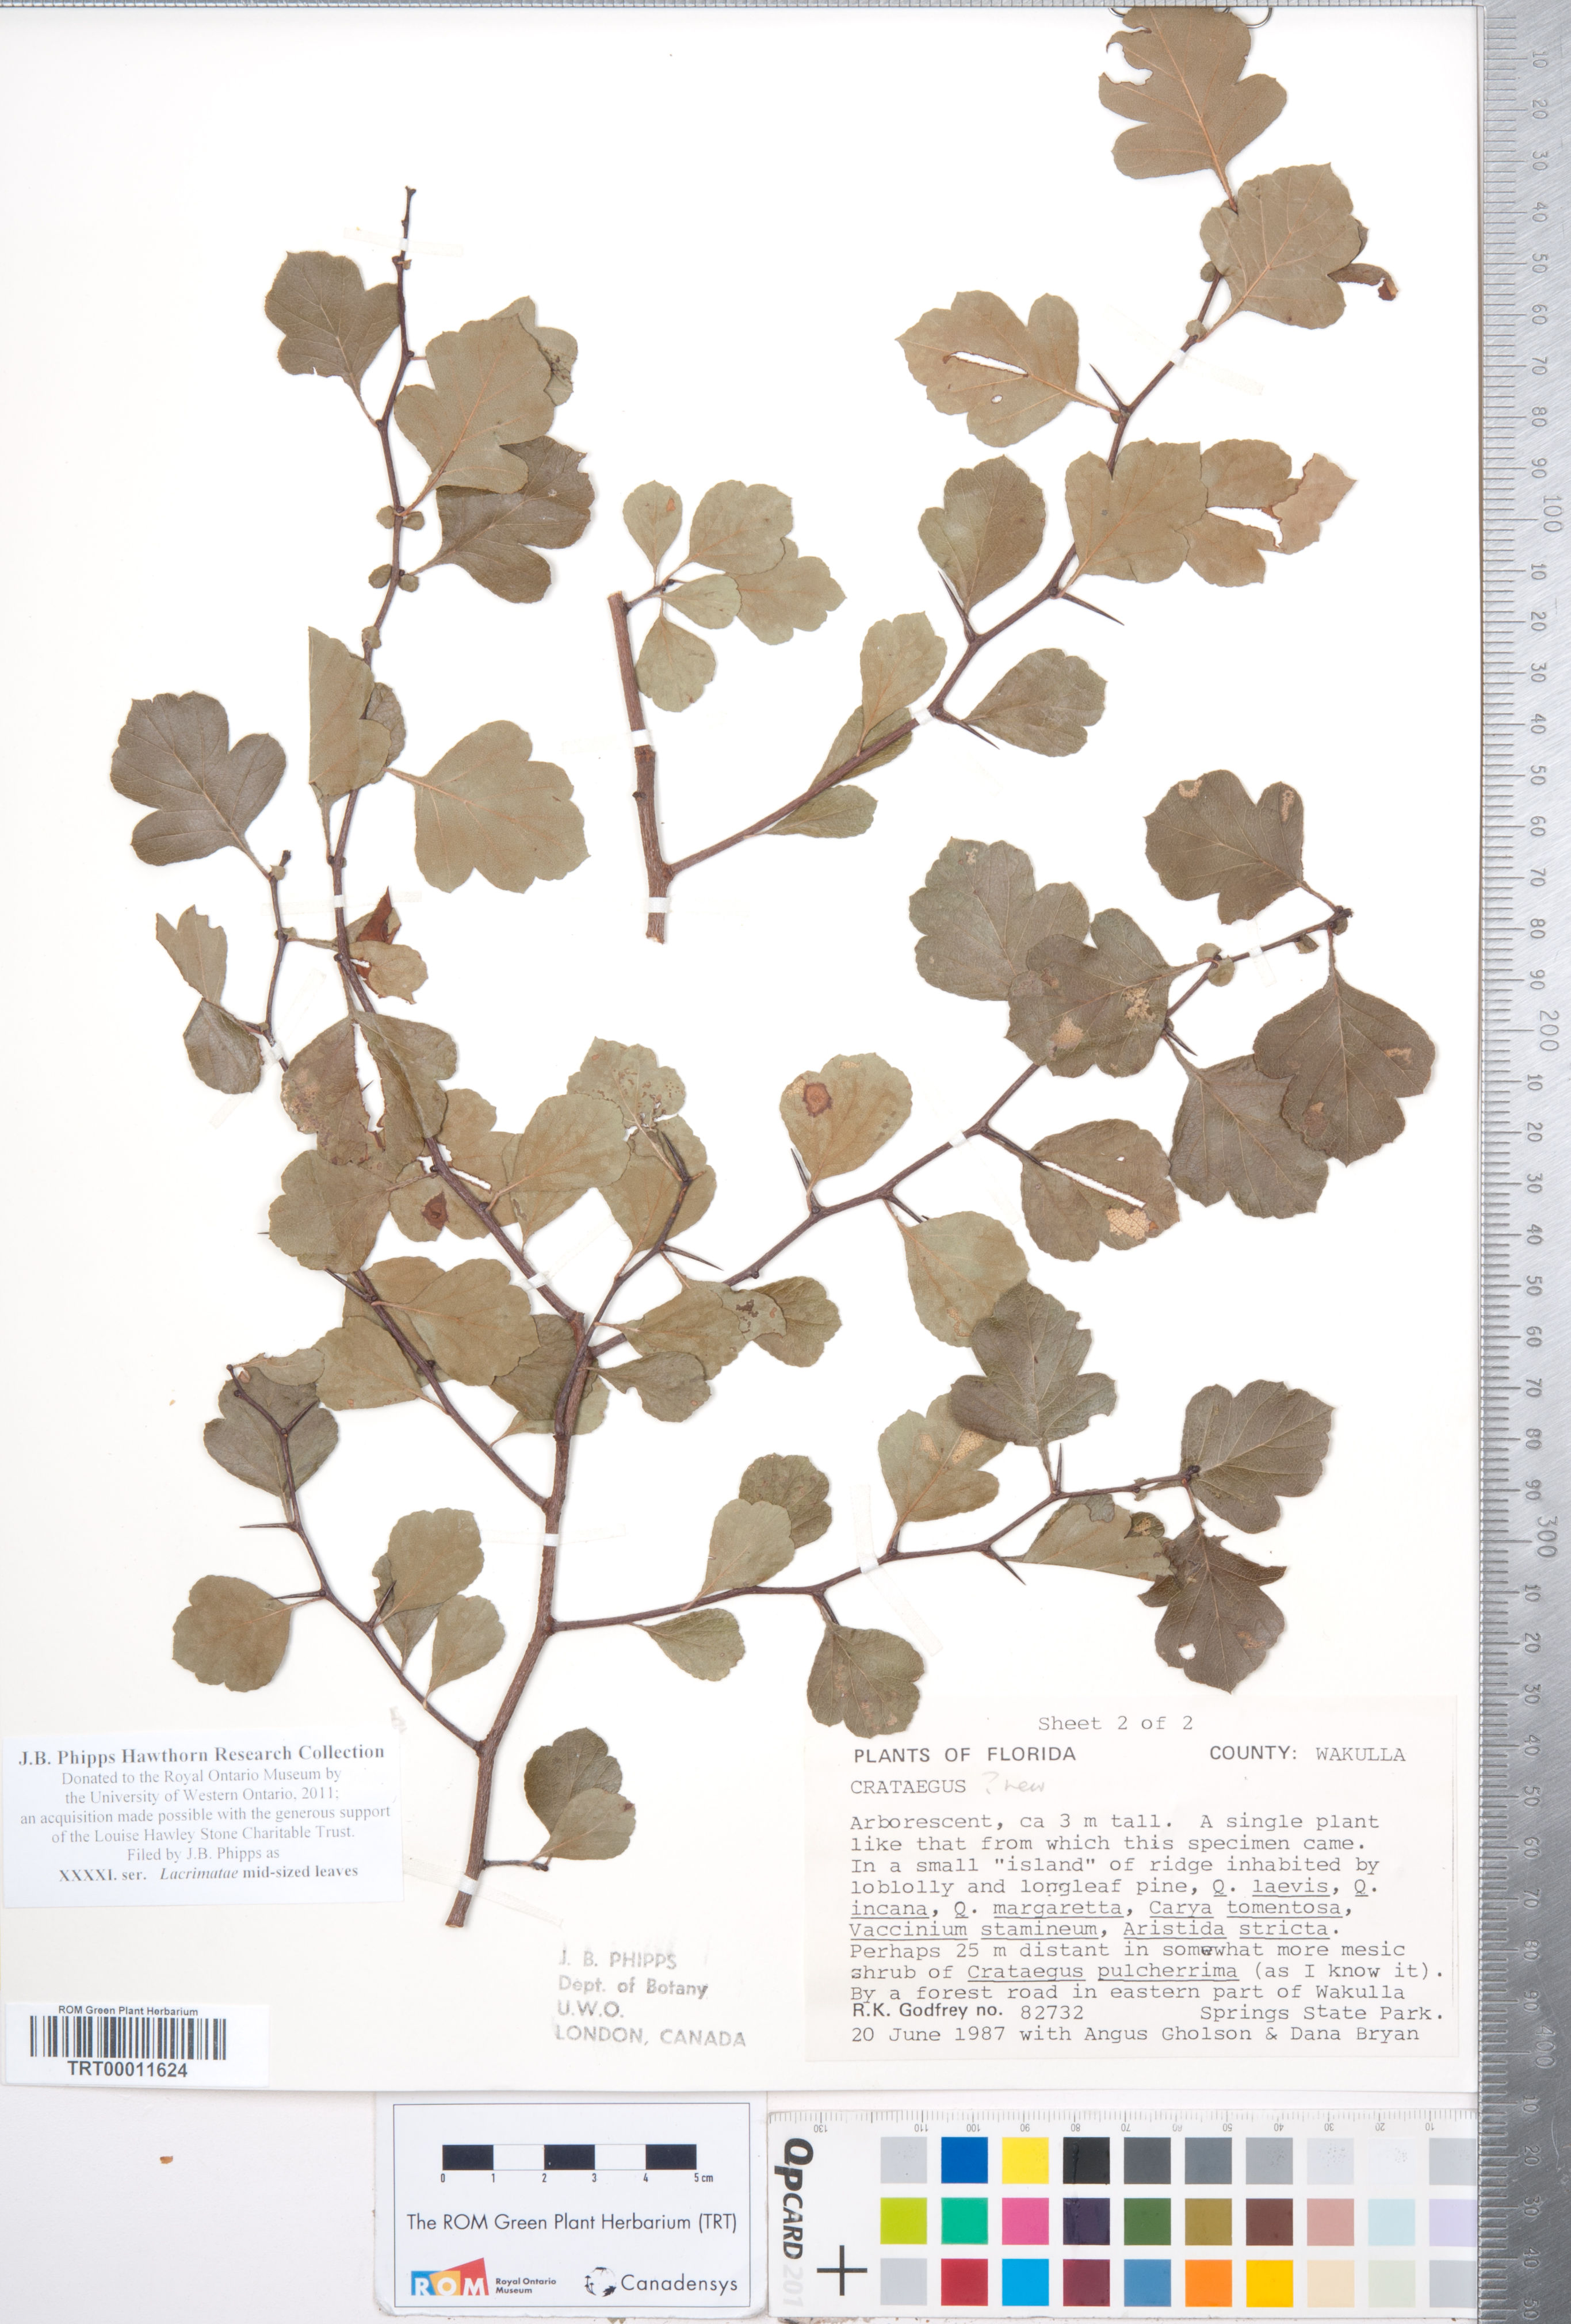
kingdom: Plantae
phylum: Tracheophyta
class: Magnoliopsida
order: Rosales
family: Rosaceae
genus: Crataegus
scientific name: Crataegus
